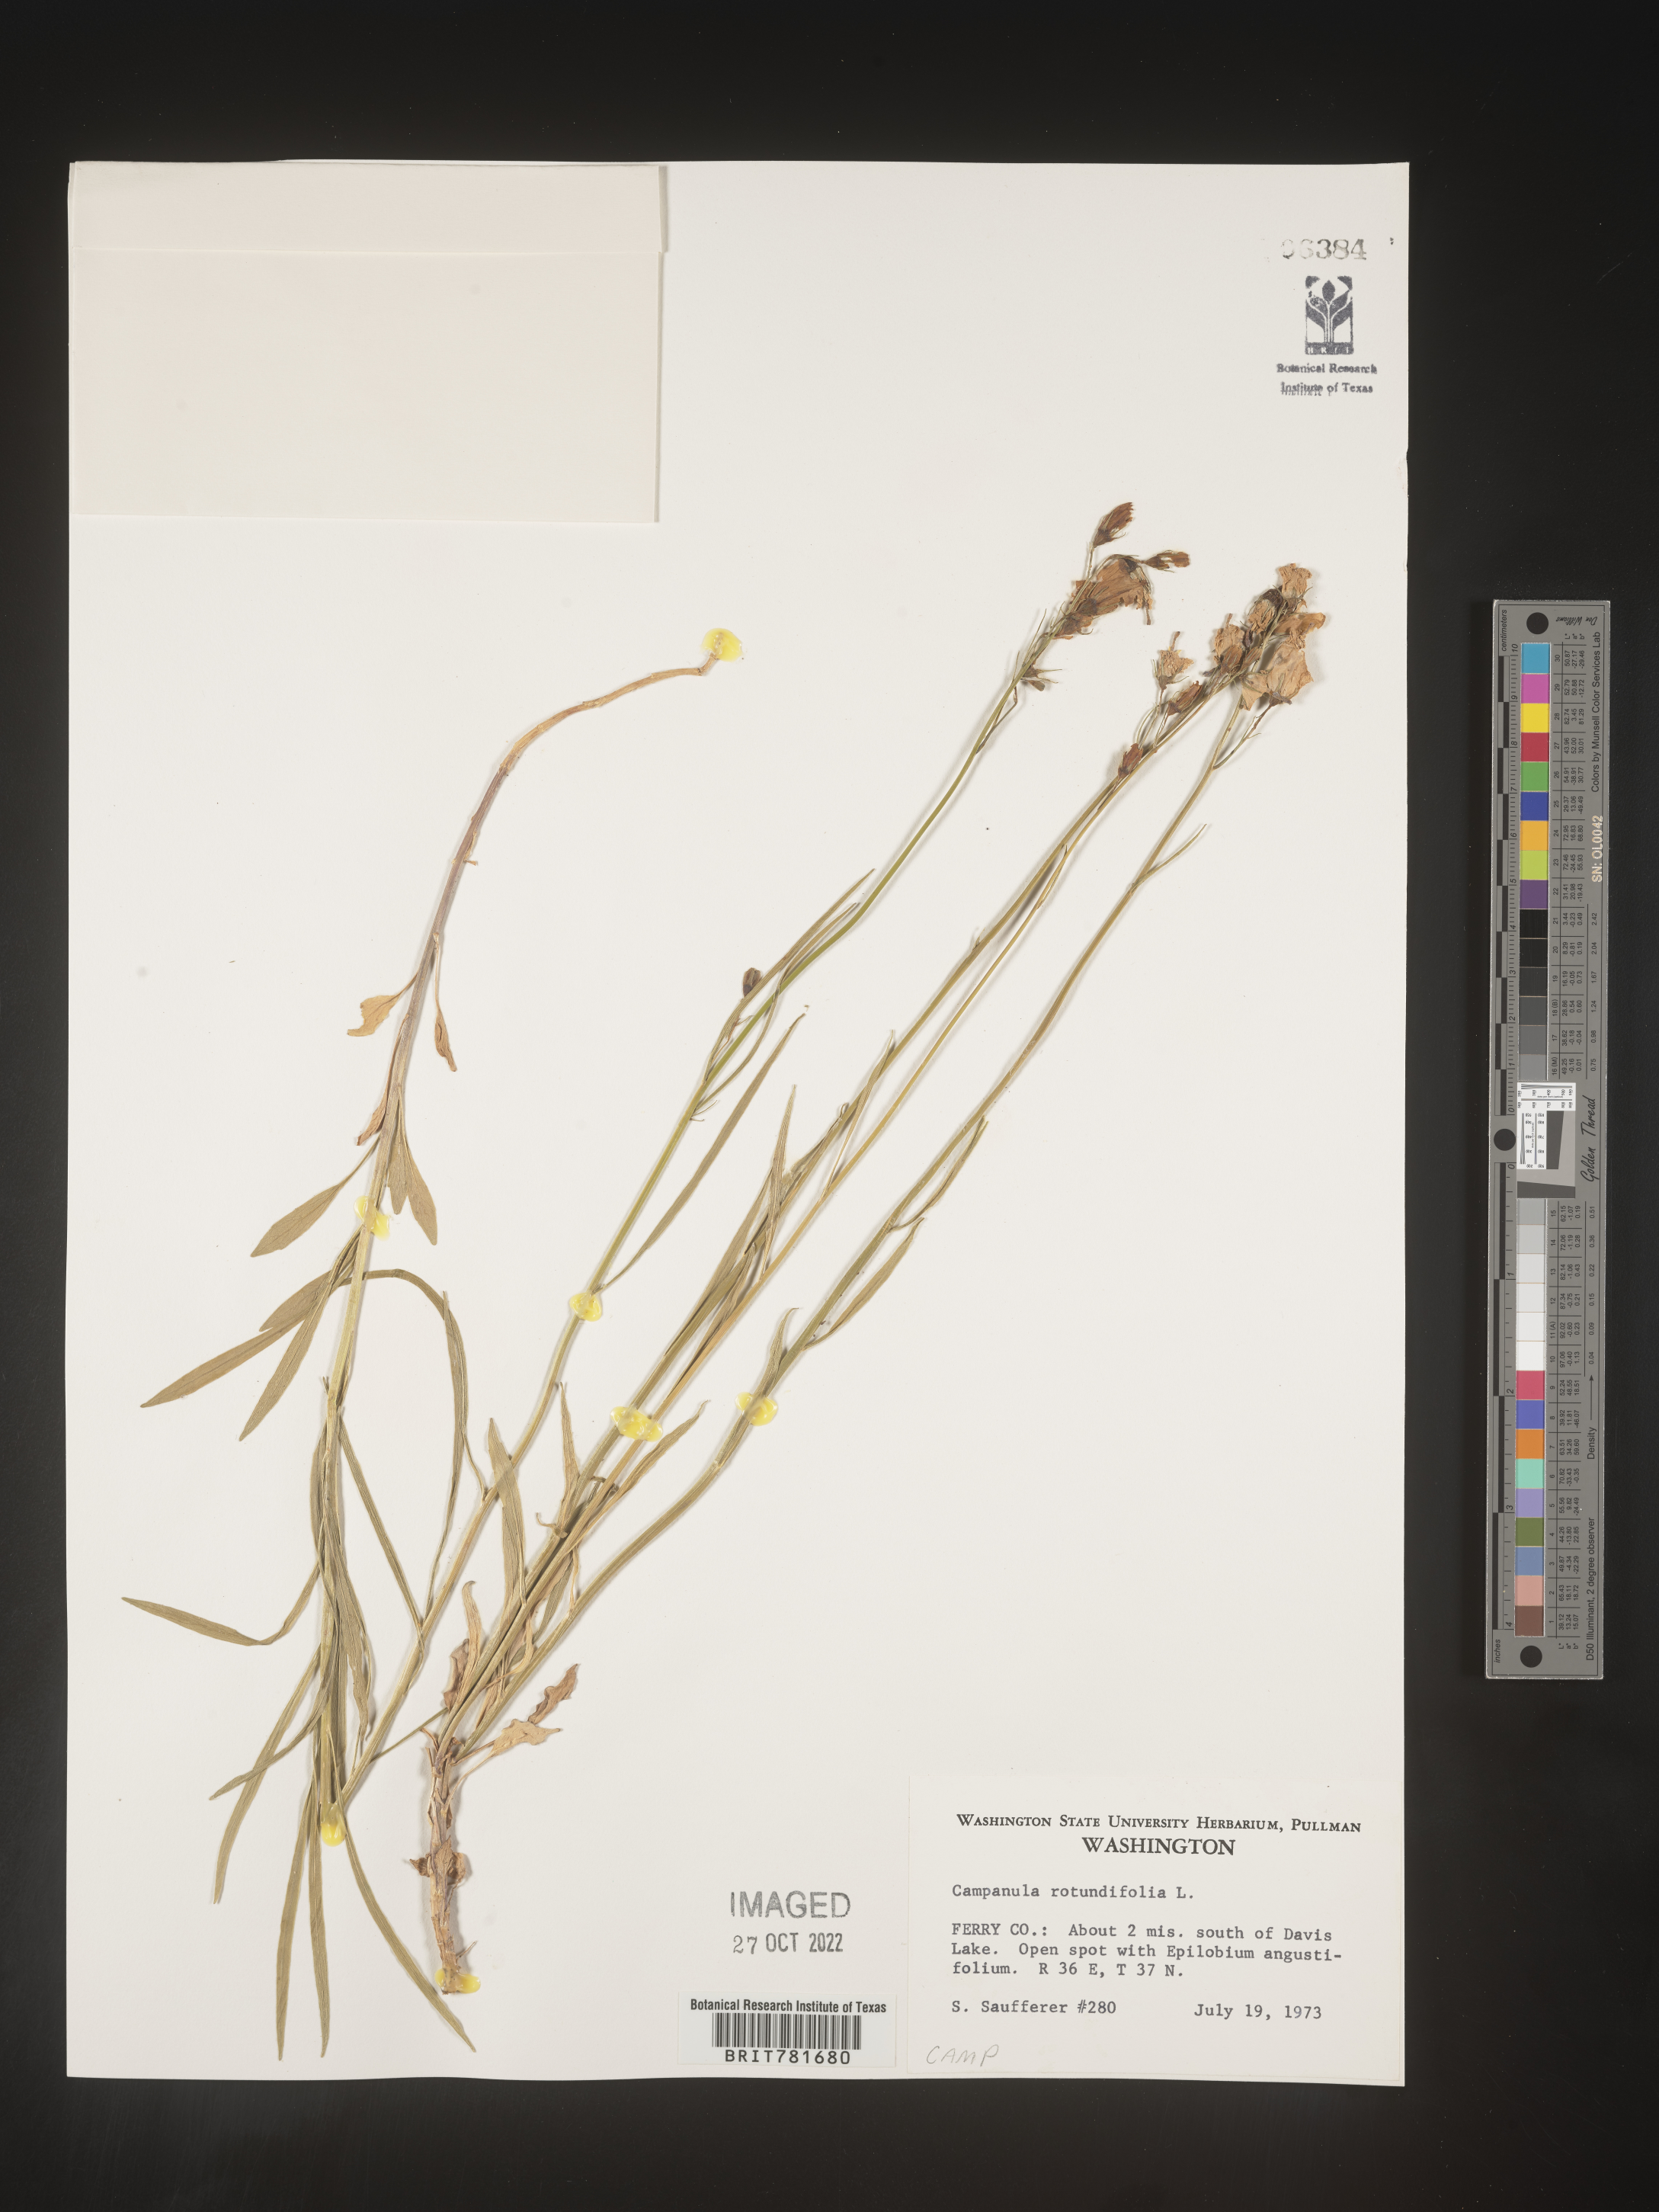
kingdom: Plantae
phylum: Tracheophyta
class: Magnoliopsida
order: Asterales
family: Campanulaceae
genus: Campanula
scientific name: Campanula rotundifolia
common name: Harebell
